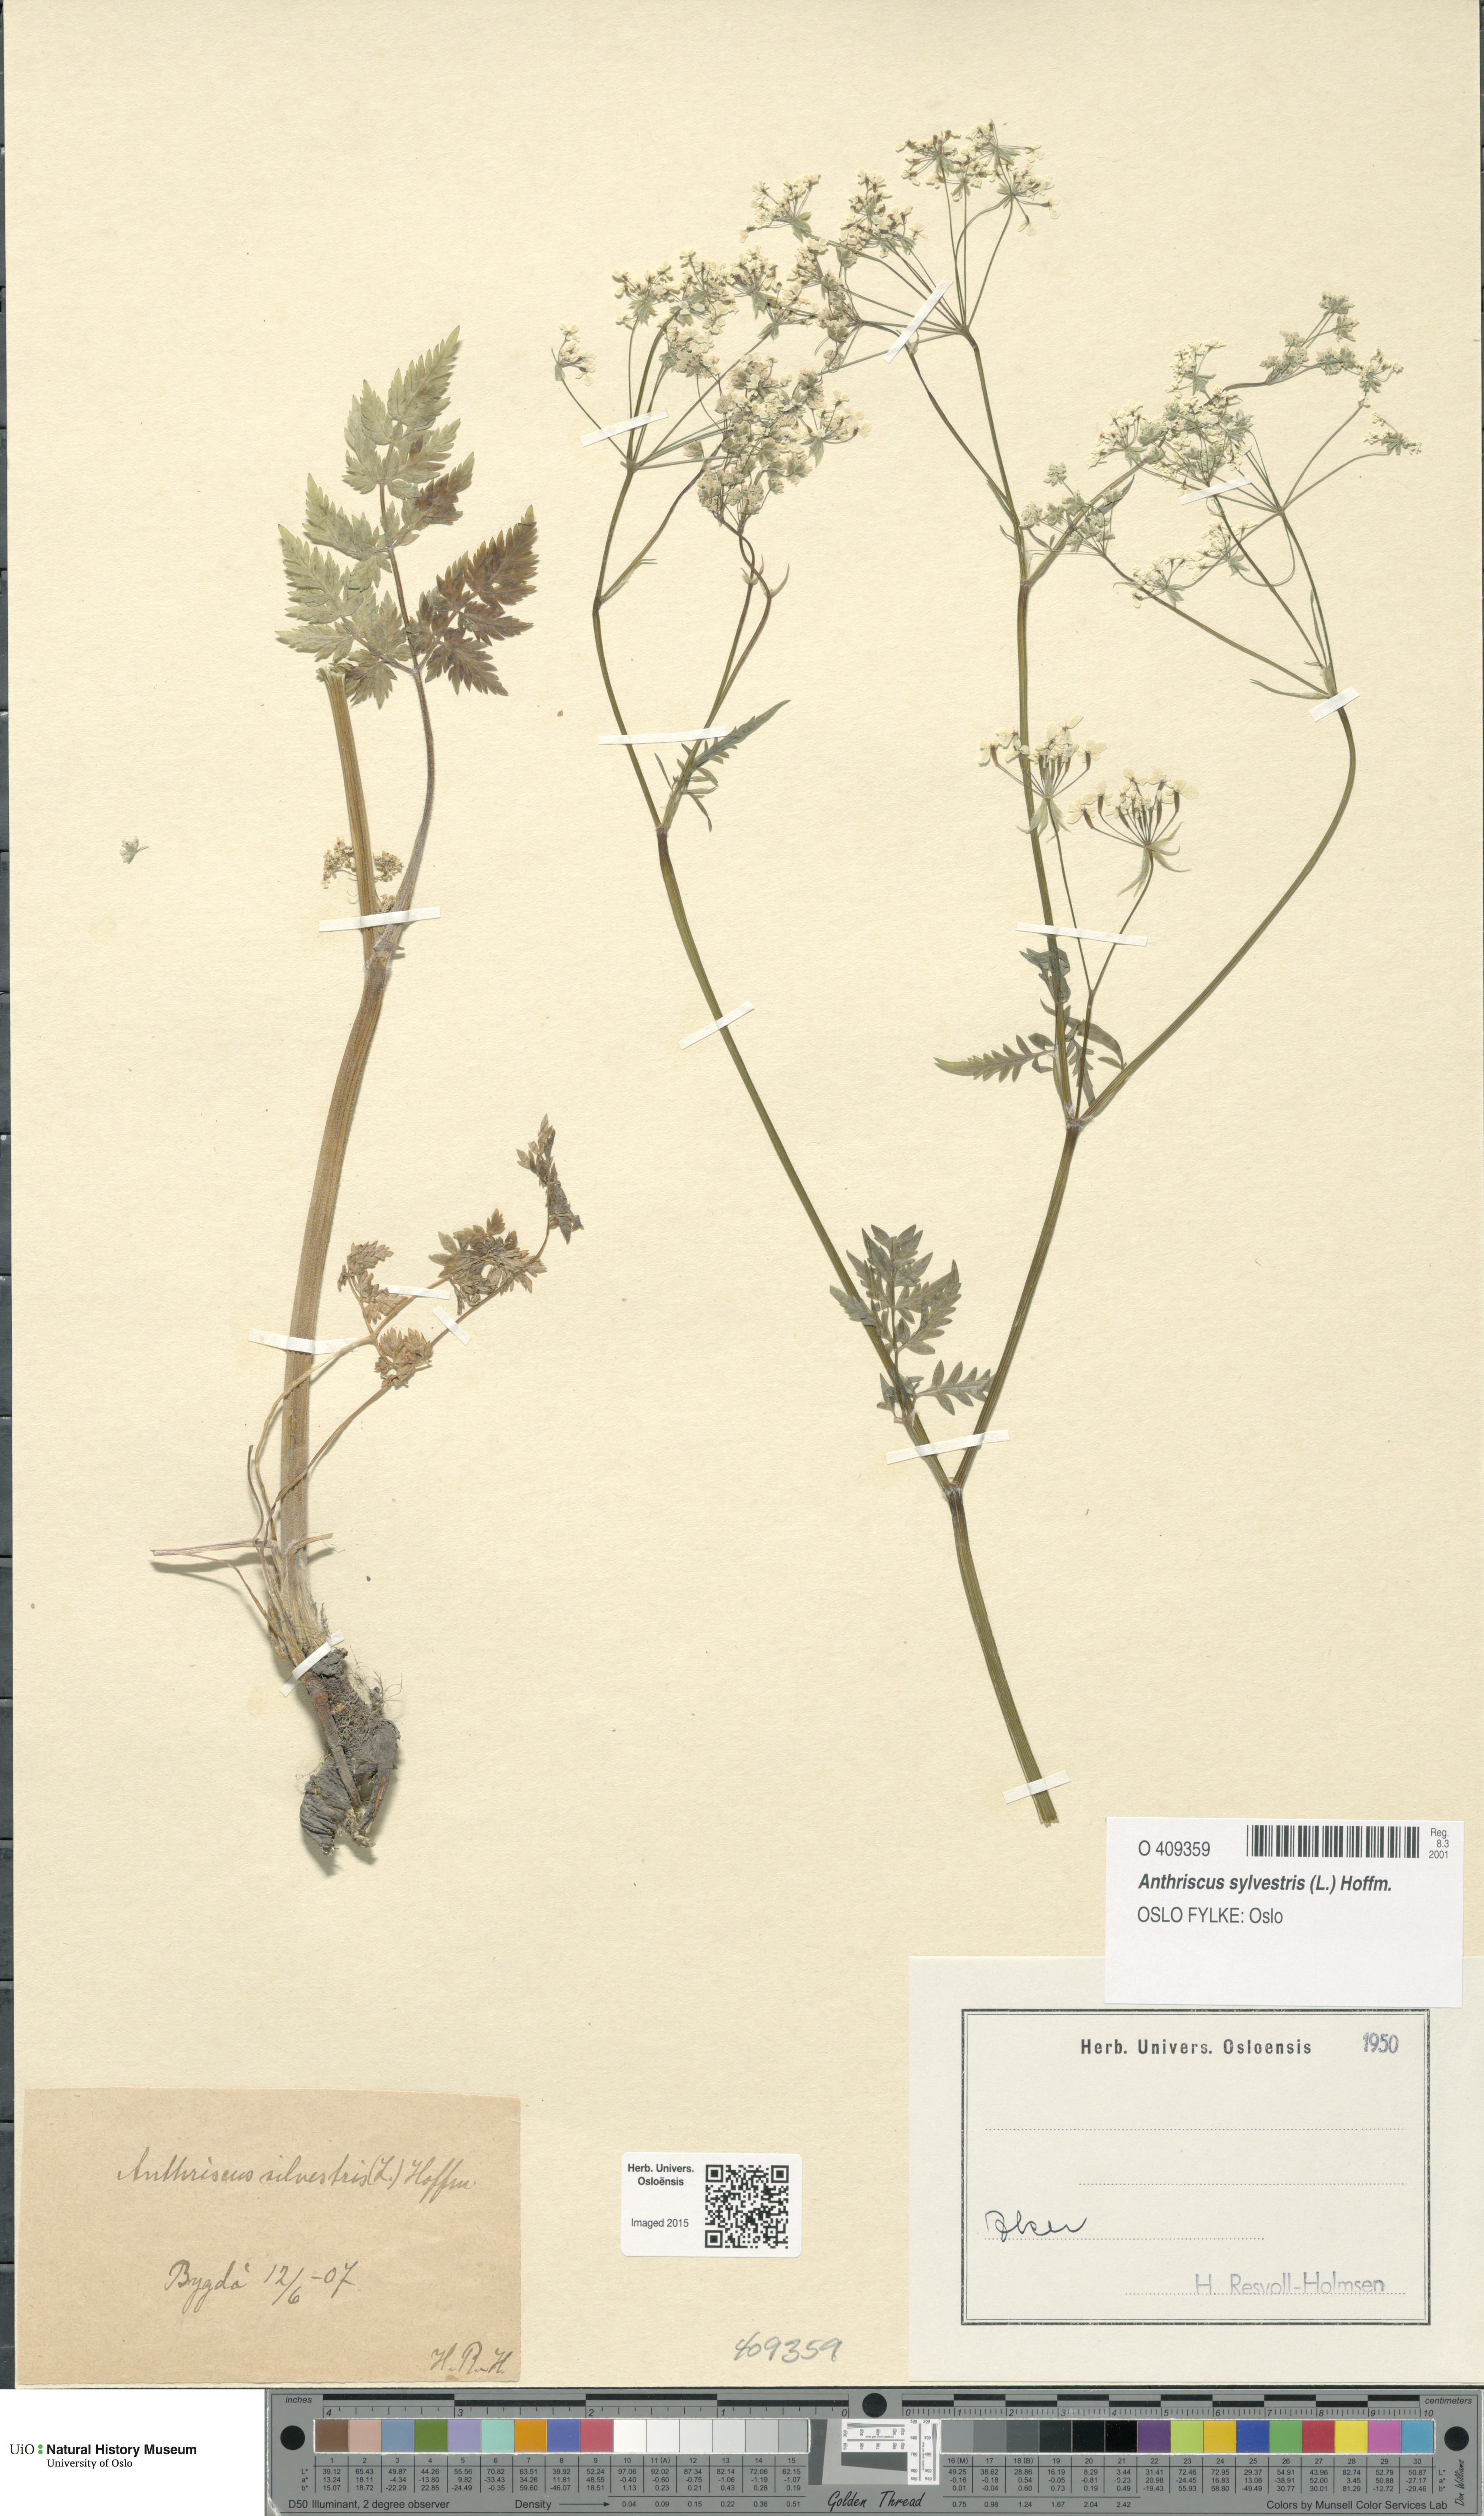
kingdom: Plantae
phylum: Tracheophyta
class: Magnoliopsida
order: Apiales
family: Apiaceae
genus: Anthriscus
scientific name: Anthriscus sylvestris
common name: Cow parsley
